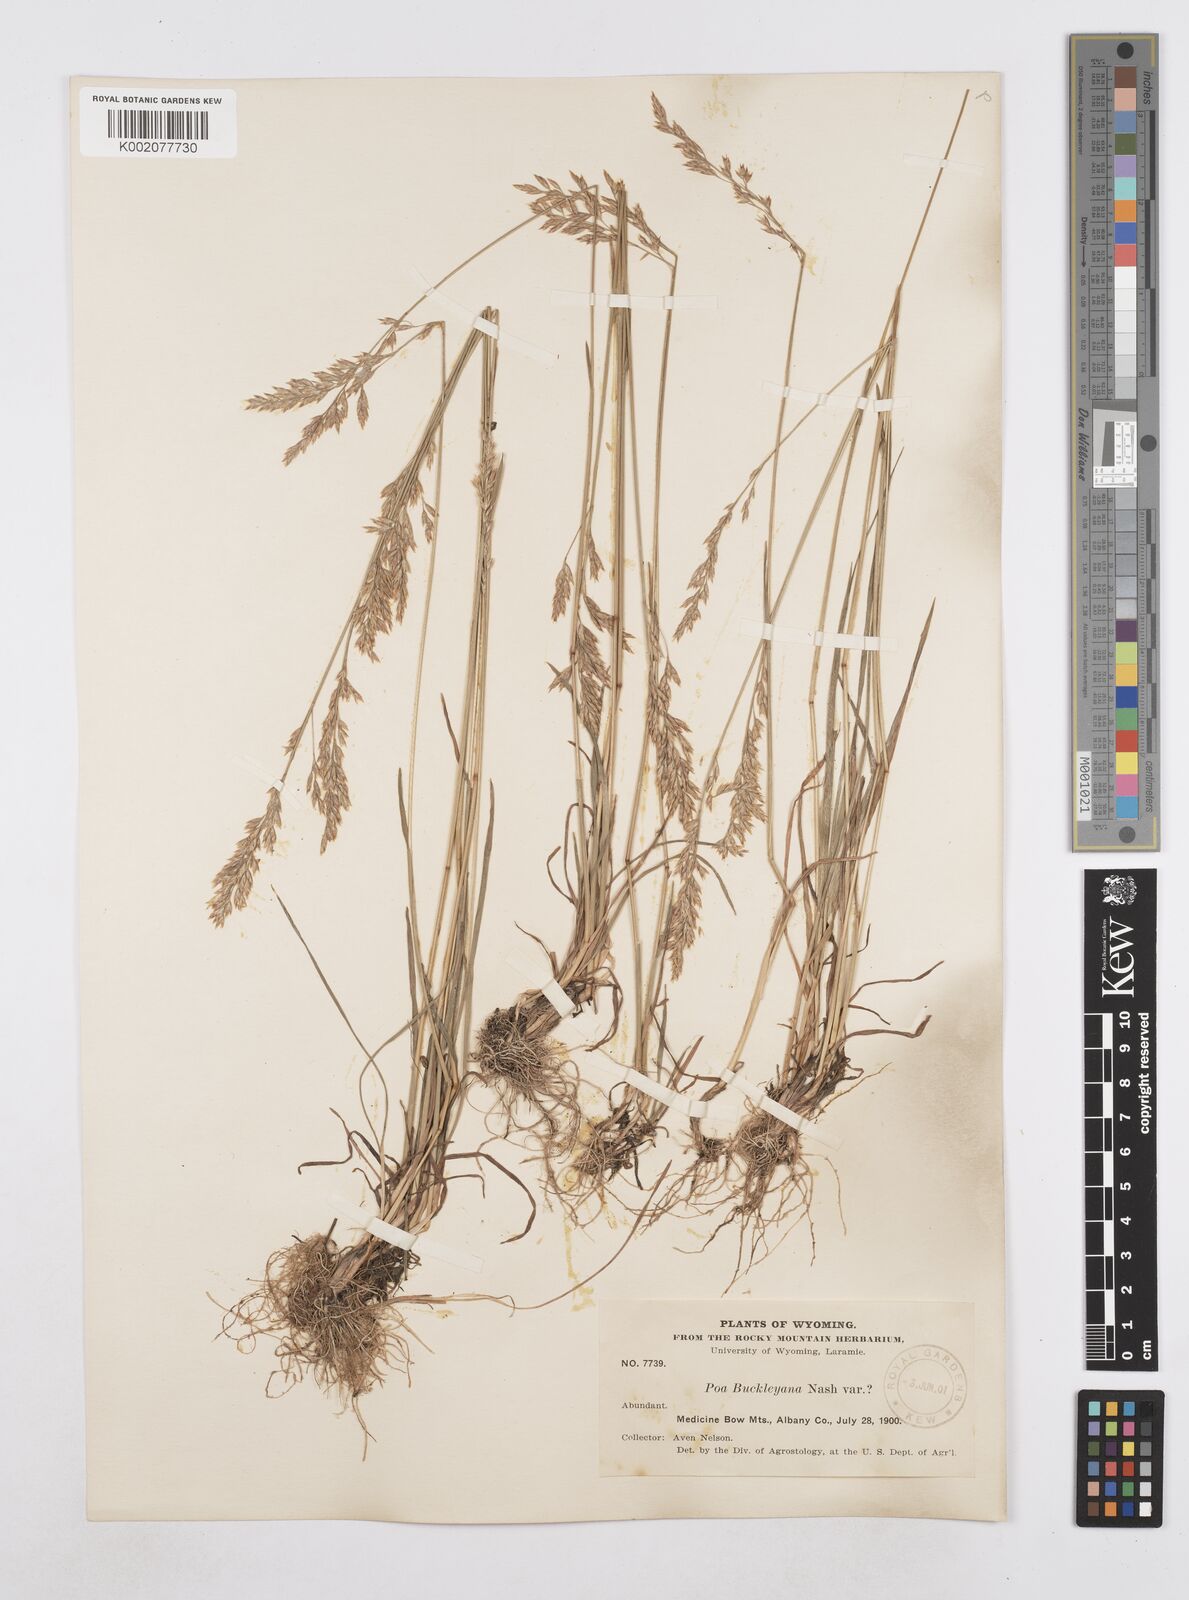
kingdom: Plantae
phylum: Tracheophyta
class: Liliopsida
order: Poales
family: Poaceae
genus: Poa
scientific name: Poa secunda
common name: Sandberg bluegrass
